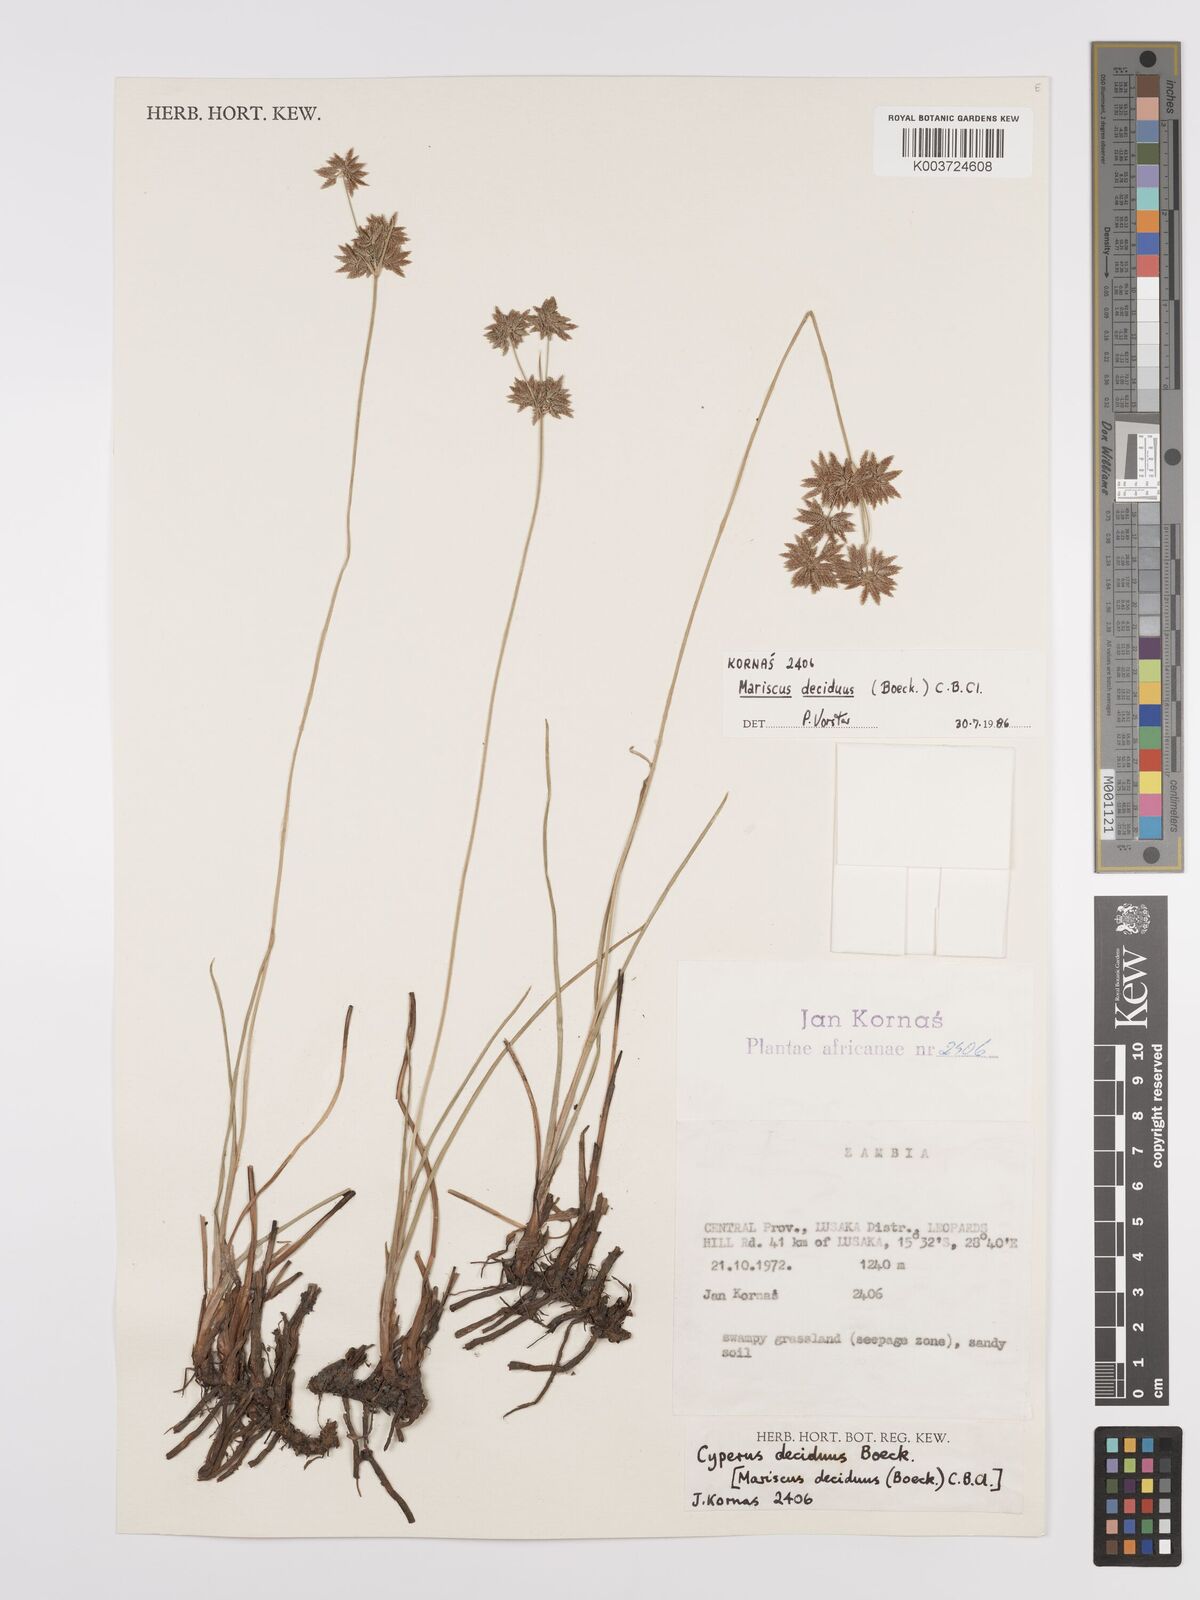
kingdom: Plantae
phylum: Tracheophyta
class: Liliopsida
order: Poales
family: Cyperaceae
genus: Cyperus
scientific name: Cyperus deciduus
